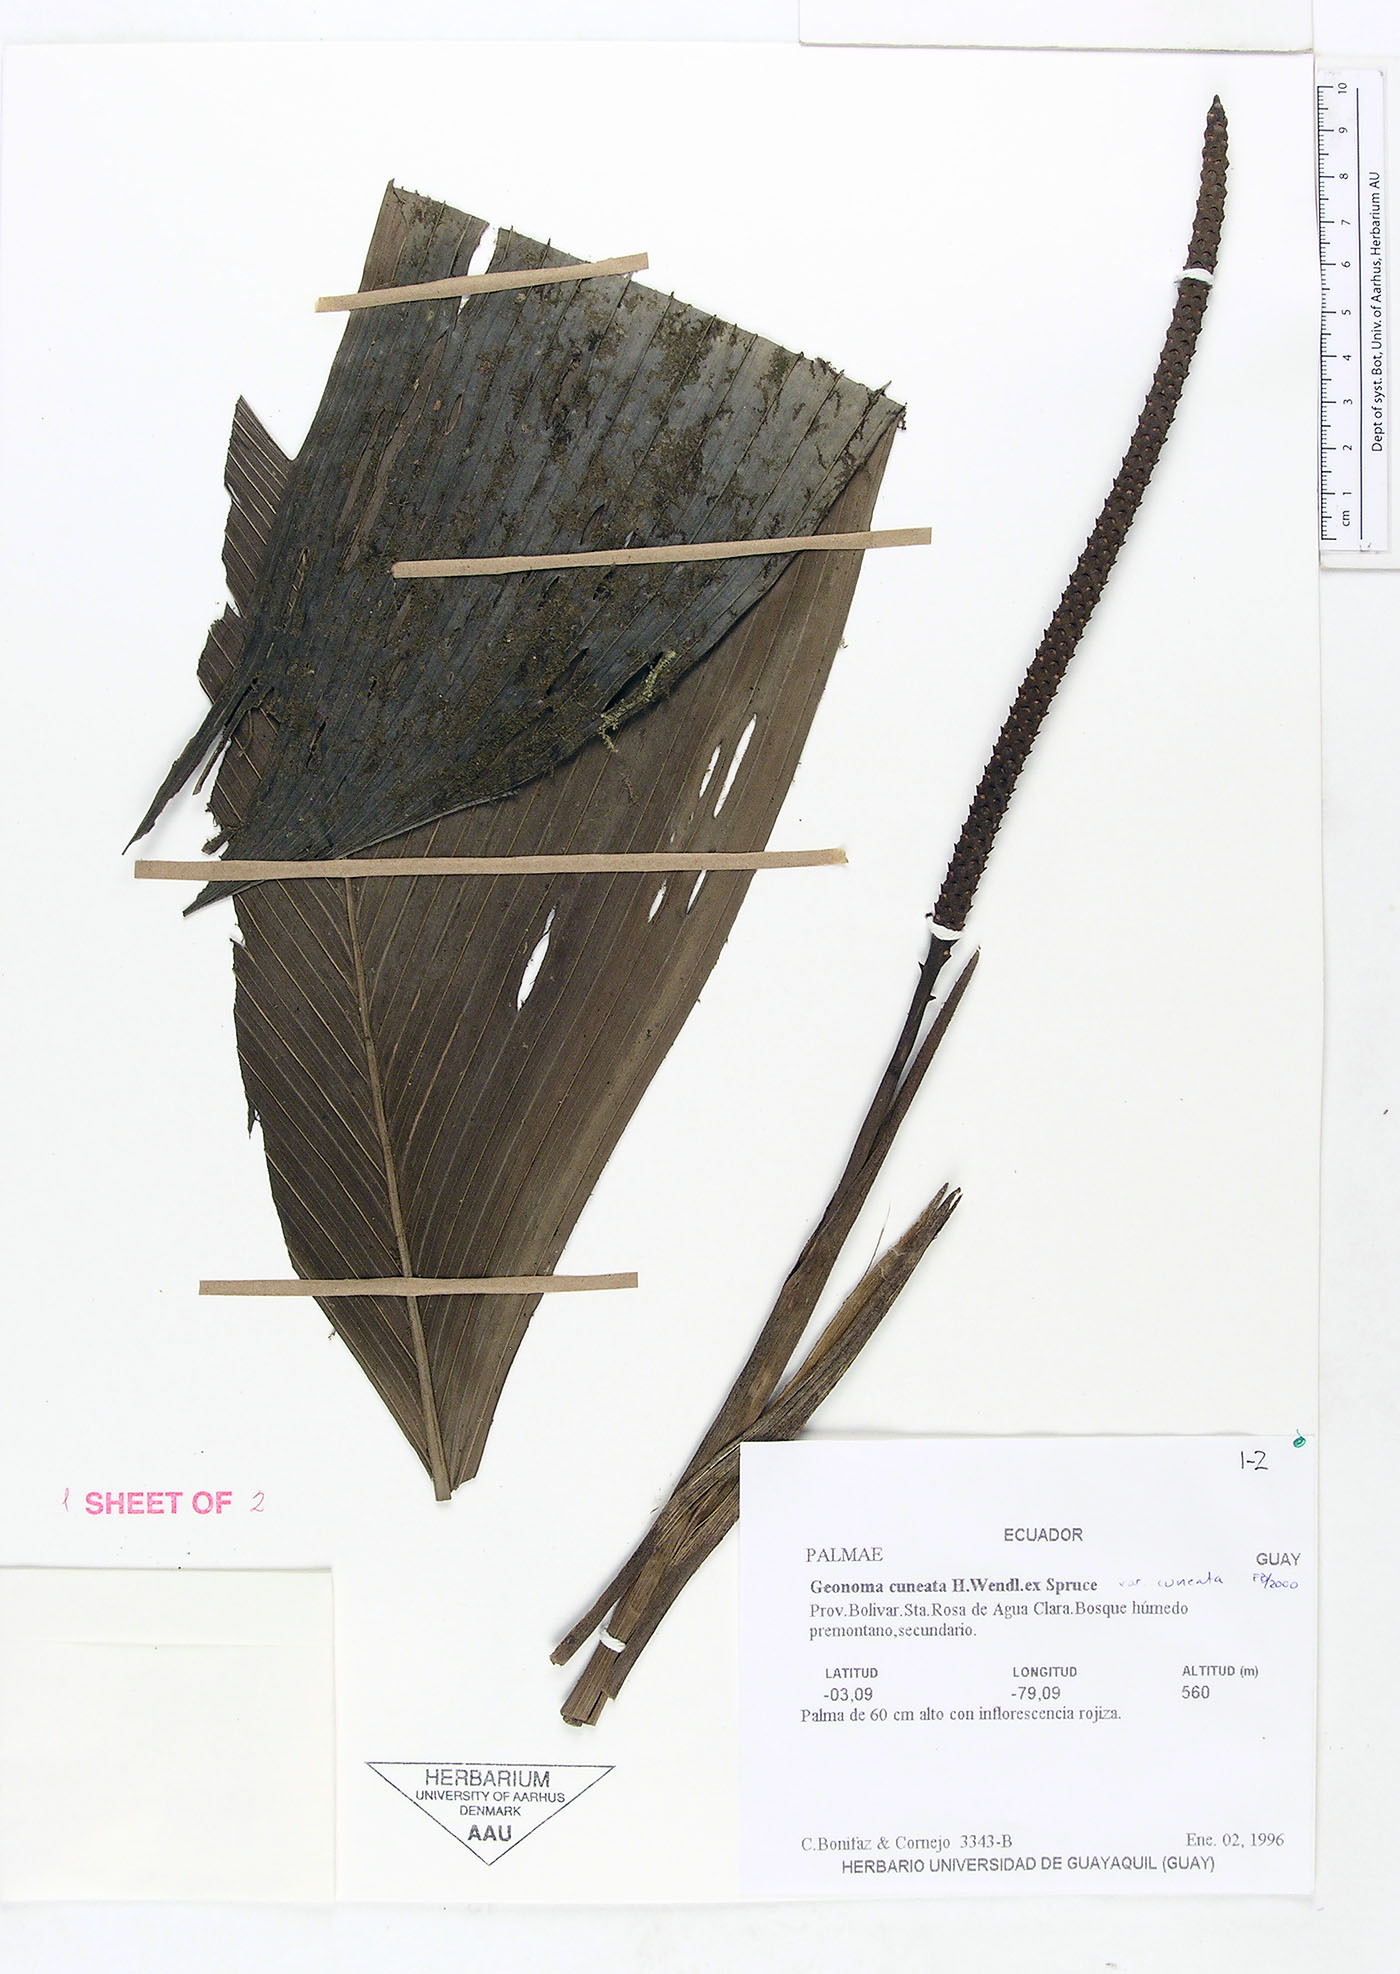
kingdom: Plantae
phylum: Tracheophyta
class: Liliopsida
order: Arecales
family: Arecaceae
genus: Geonoma
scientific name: Geonoma cuneata
